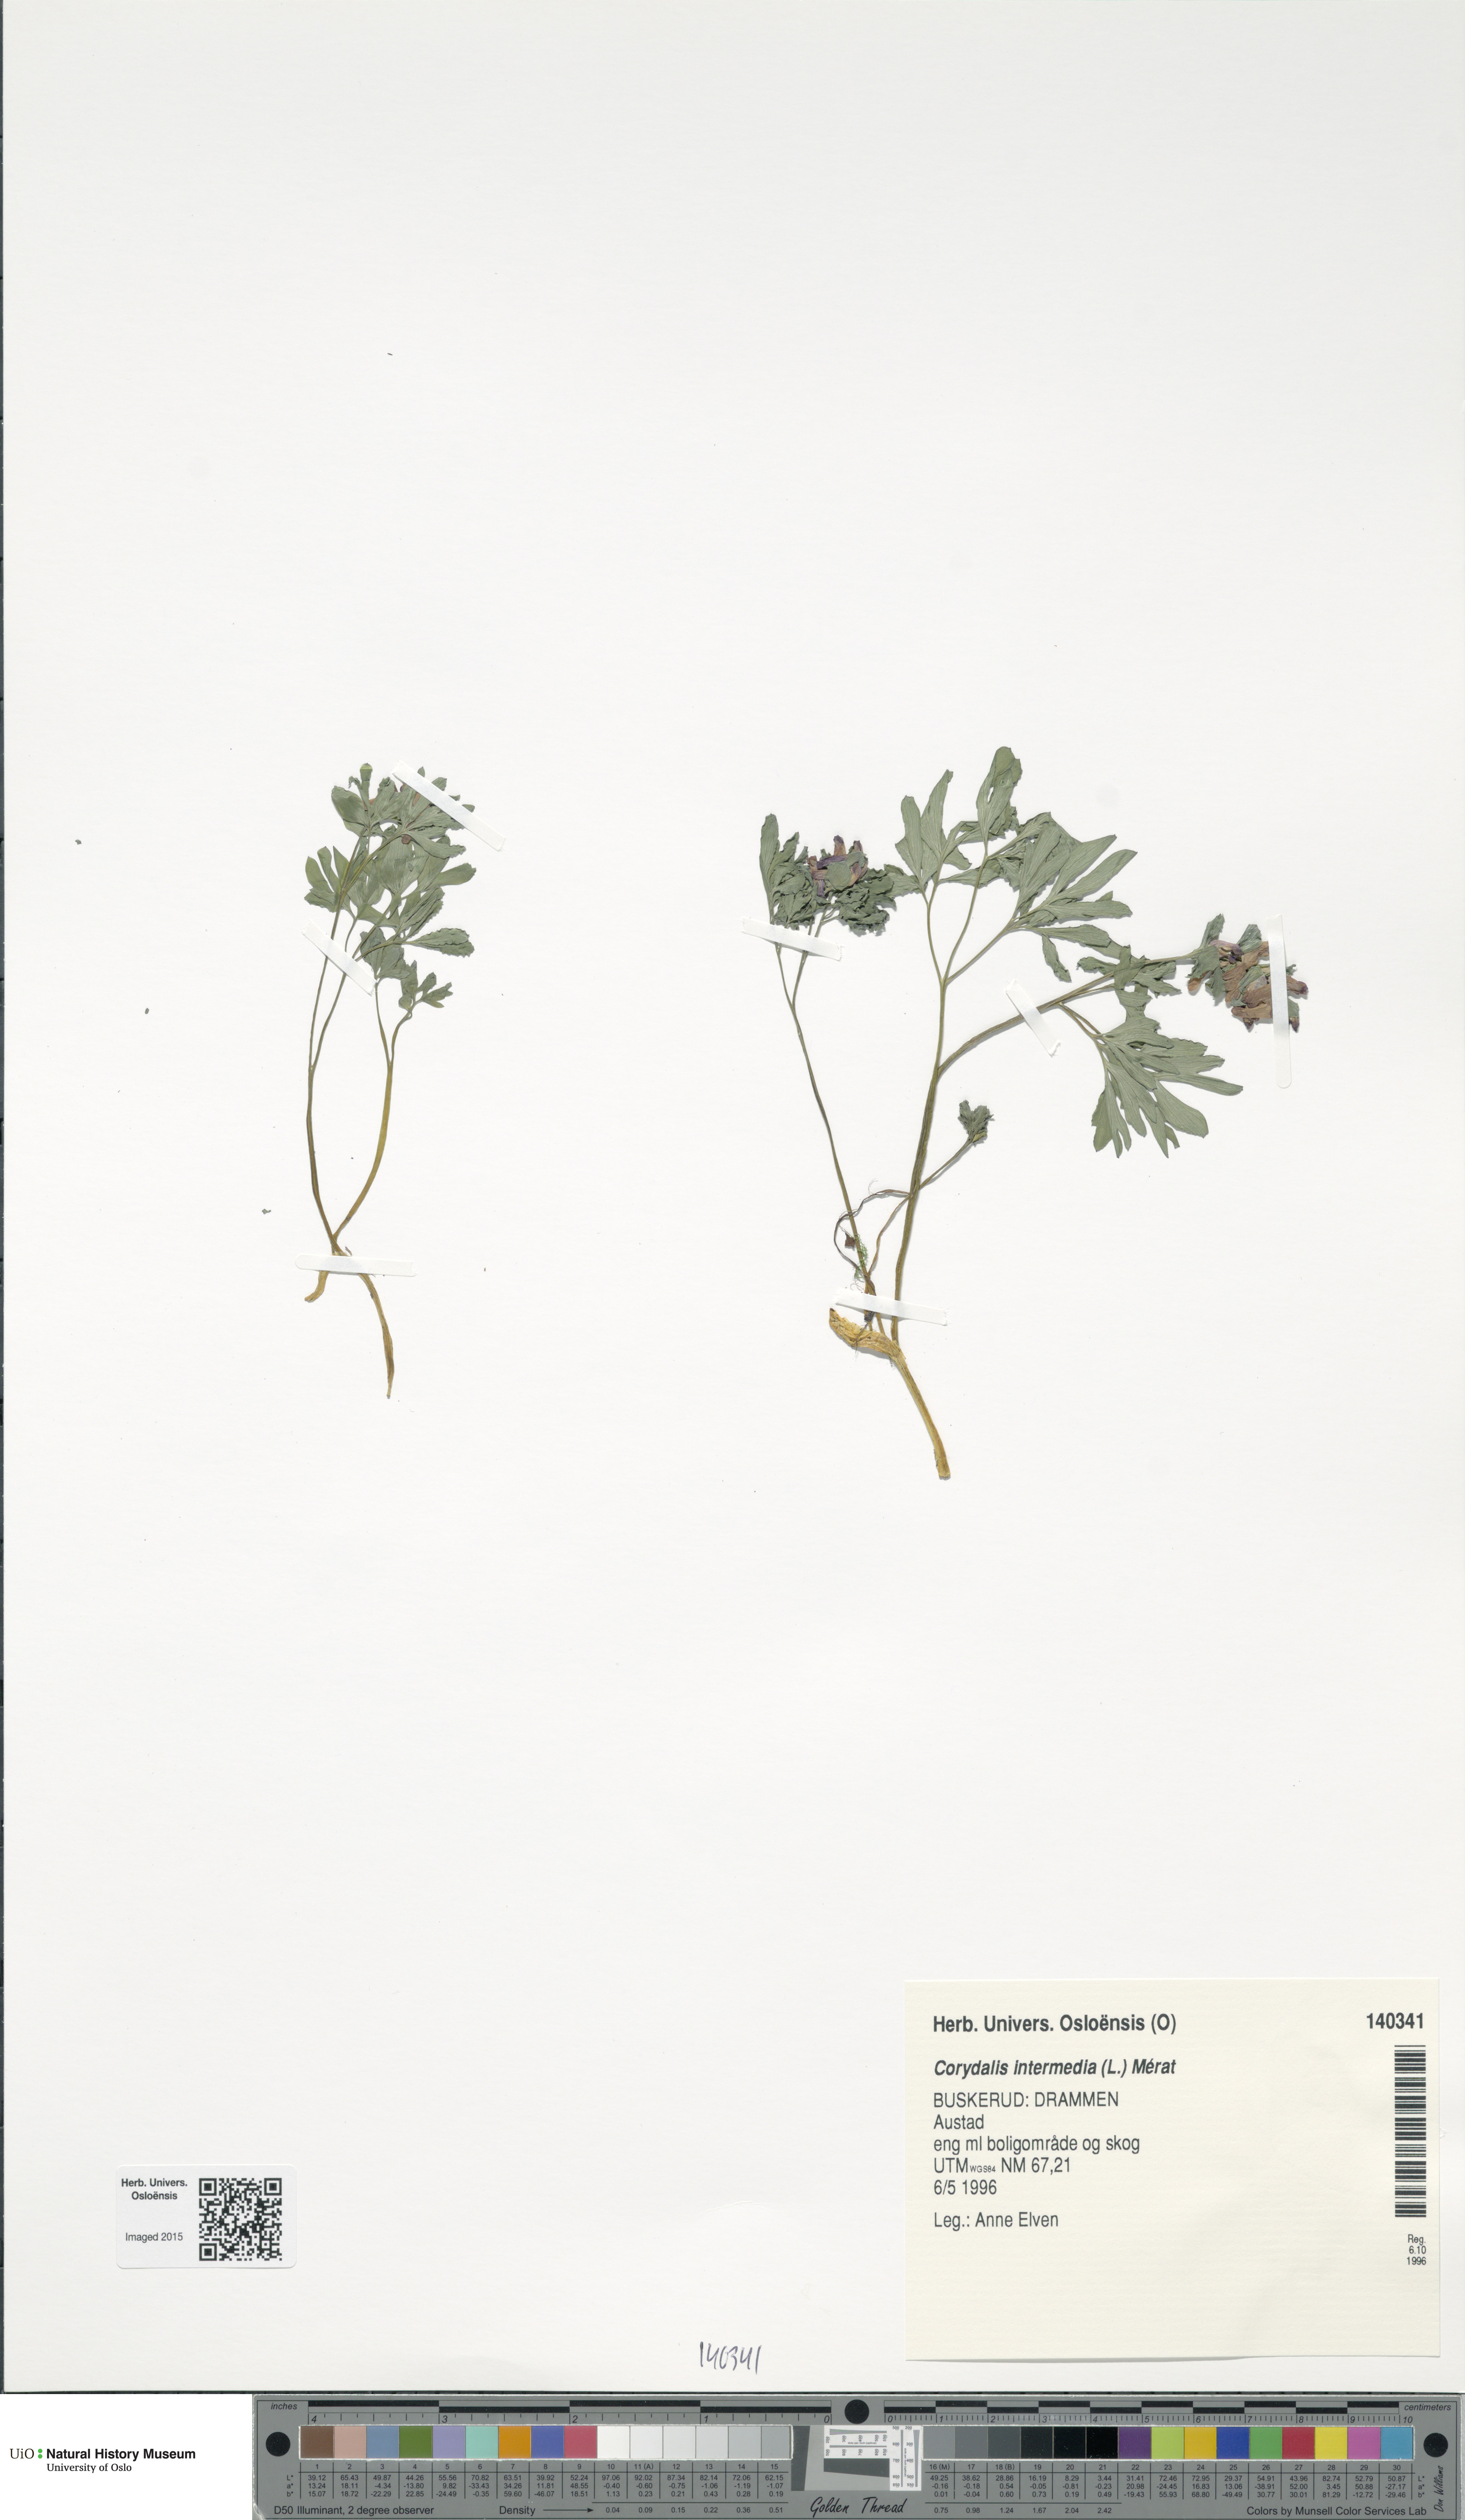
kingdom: Plantae
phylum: Tracheophyta
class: Magnoliopsida
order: Ranunculales
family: Papaveraceae
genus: Corydalis
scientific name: Corydalis intermedia
